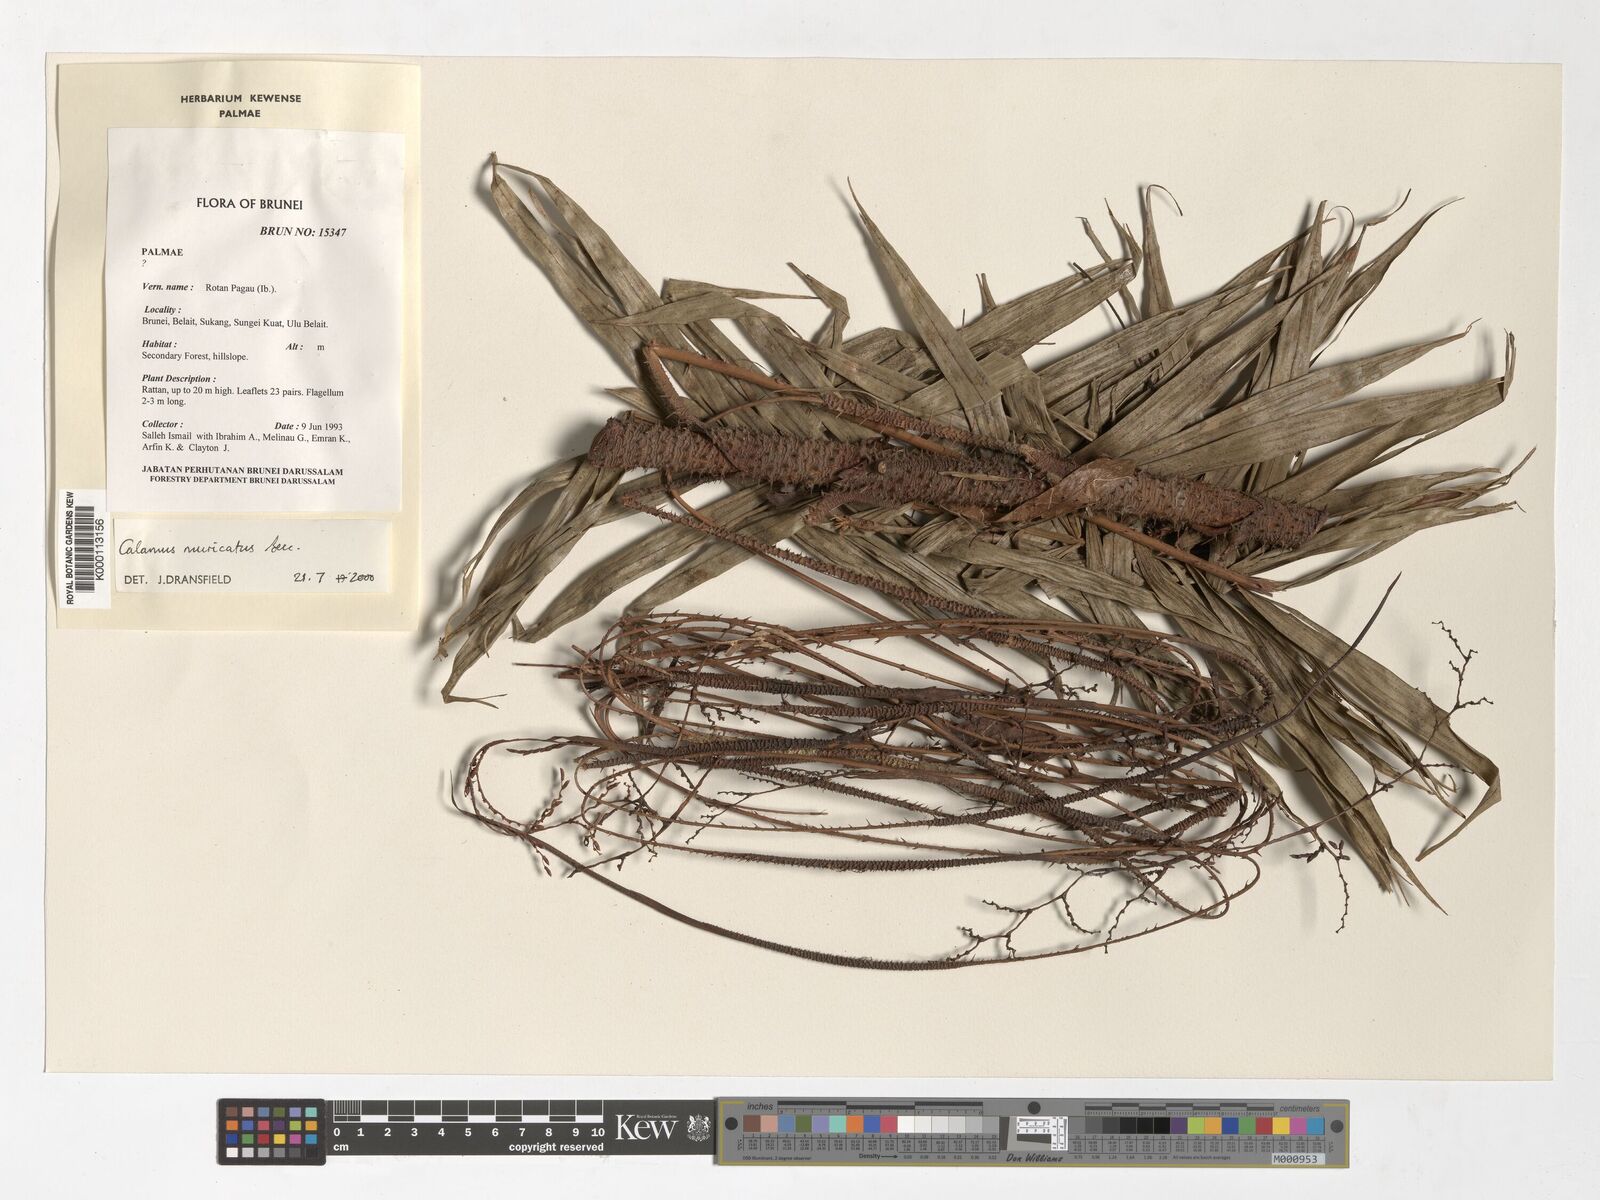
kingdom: Plantae
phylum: Tracheophyta
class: Liliopsida
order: Arecales
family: Arecaceae
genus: Calamus
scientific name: Calamus muricatus
